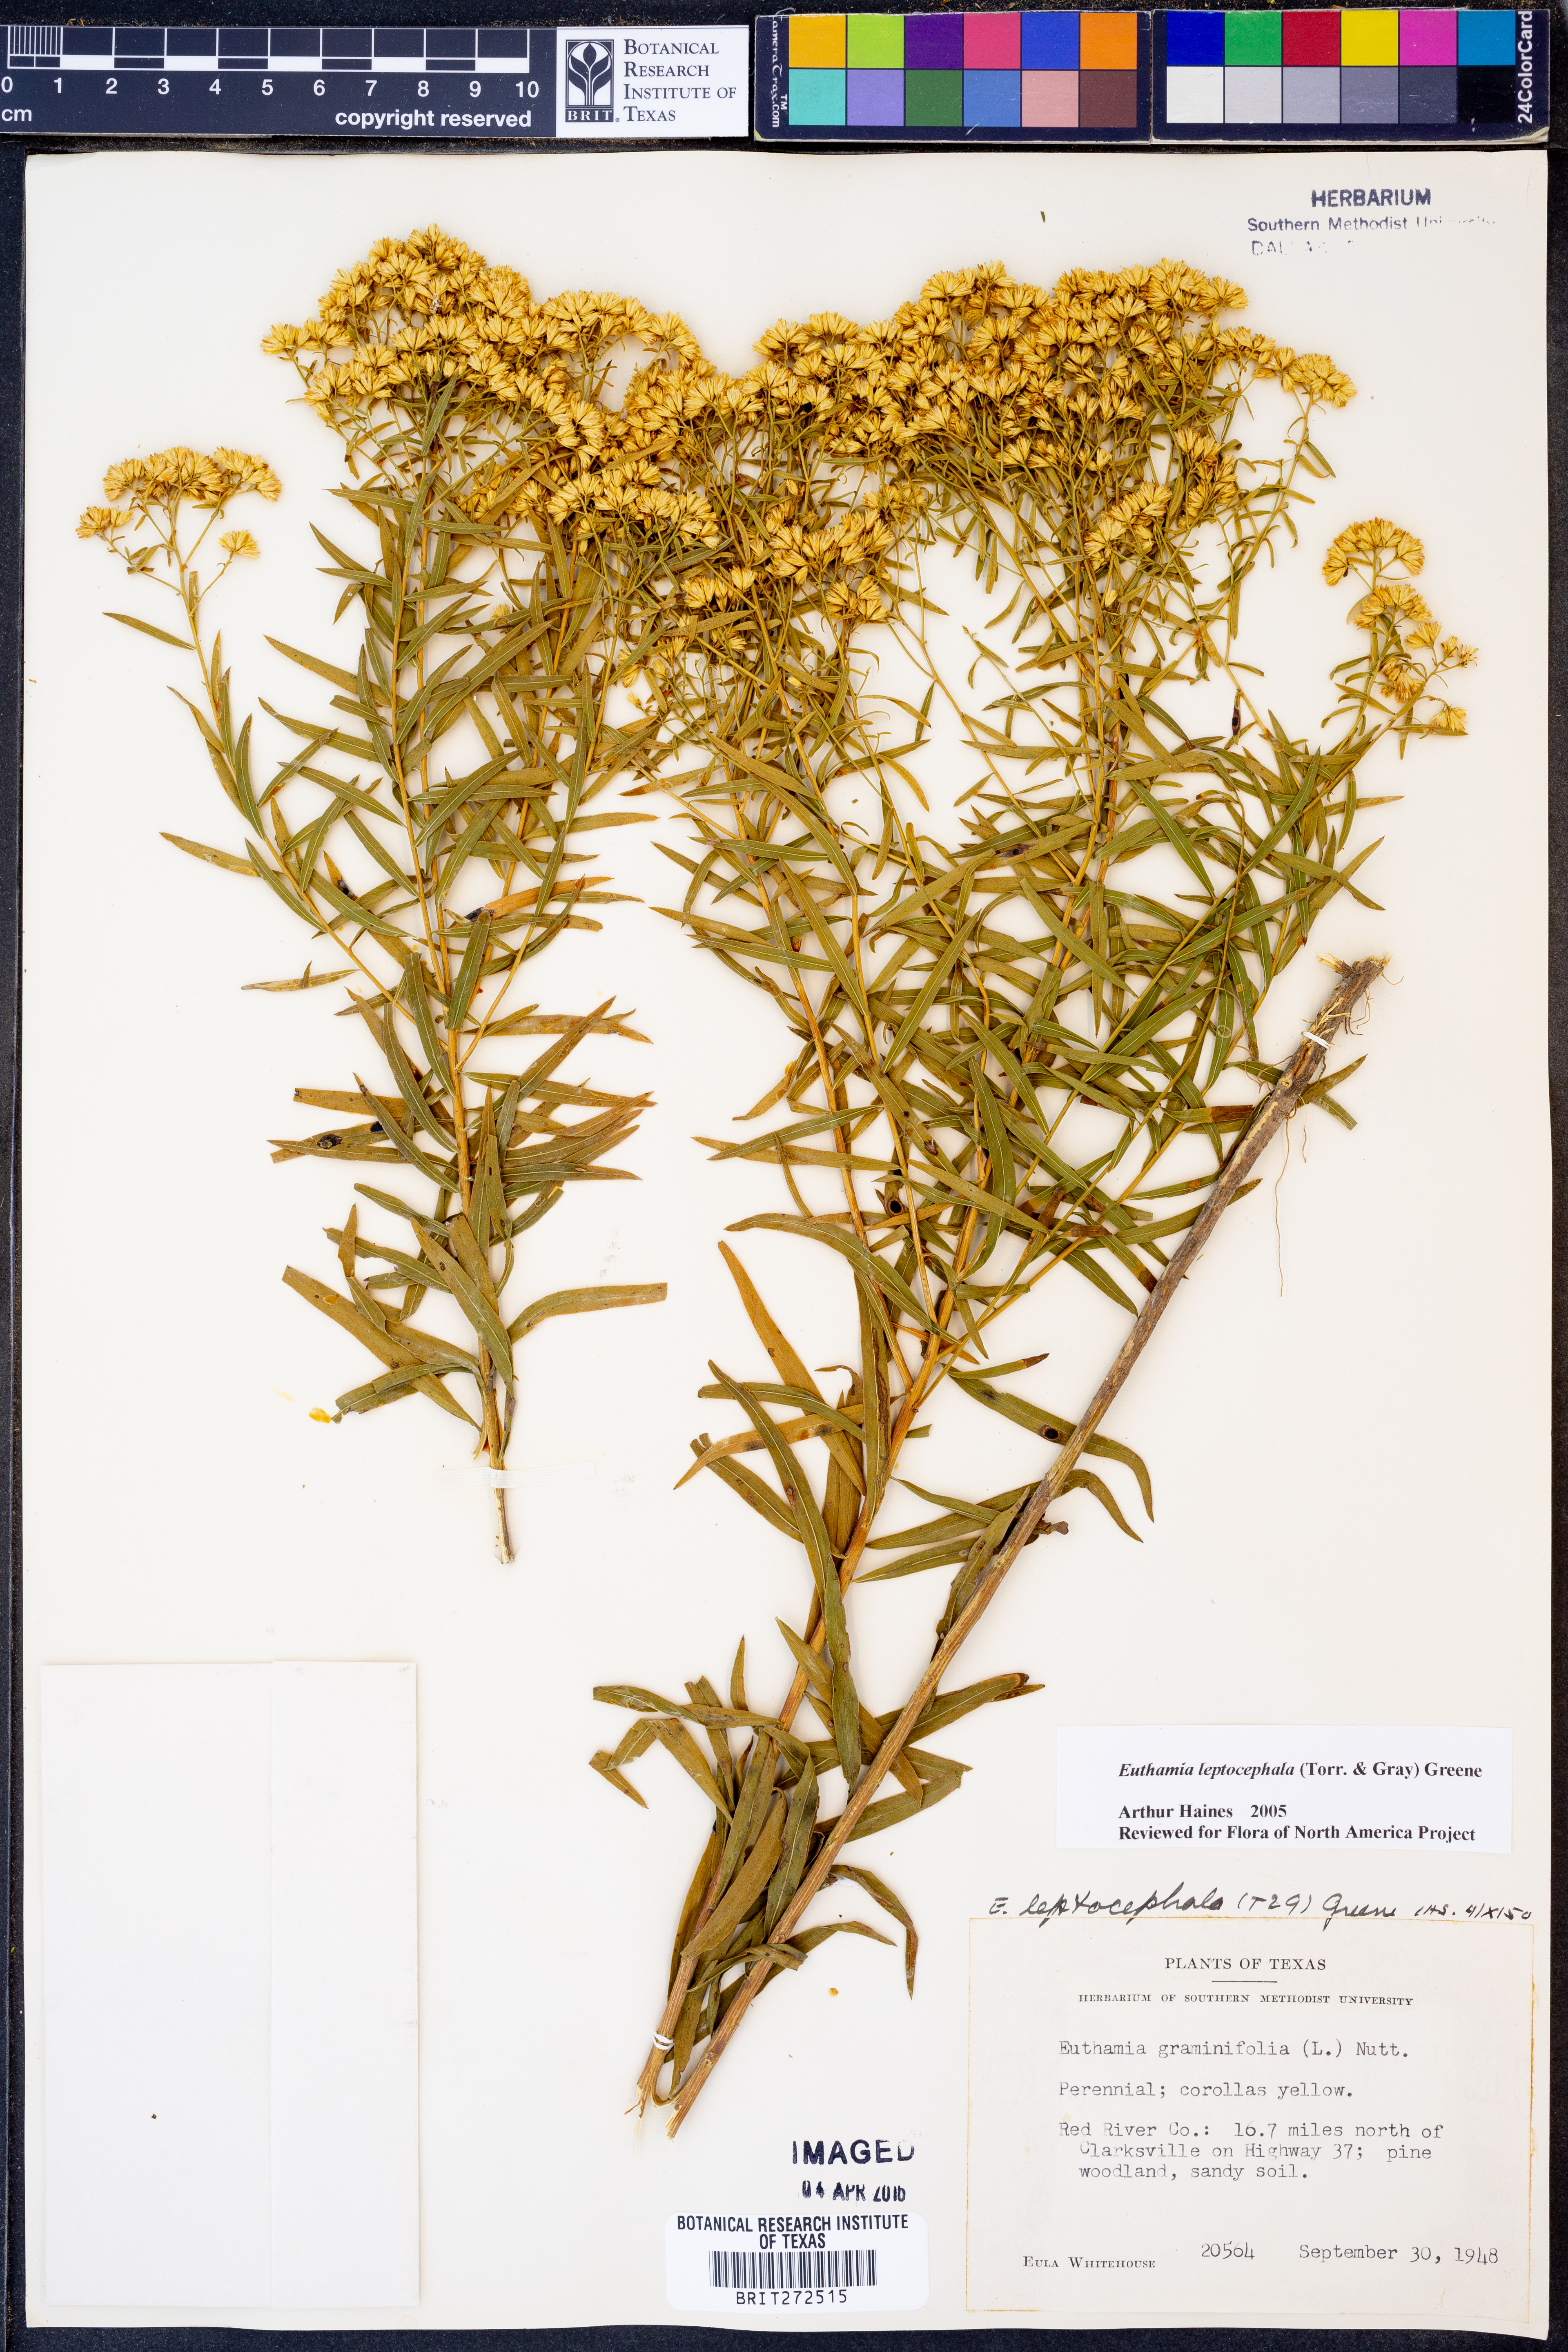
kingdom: Plantae
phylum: Tracheophyta
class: Magnoliopsida
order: Asterales
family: Asteraceae
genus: Euthamia
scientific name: Euthamia leptocephala
